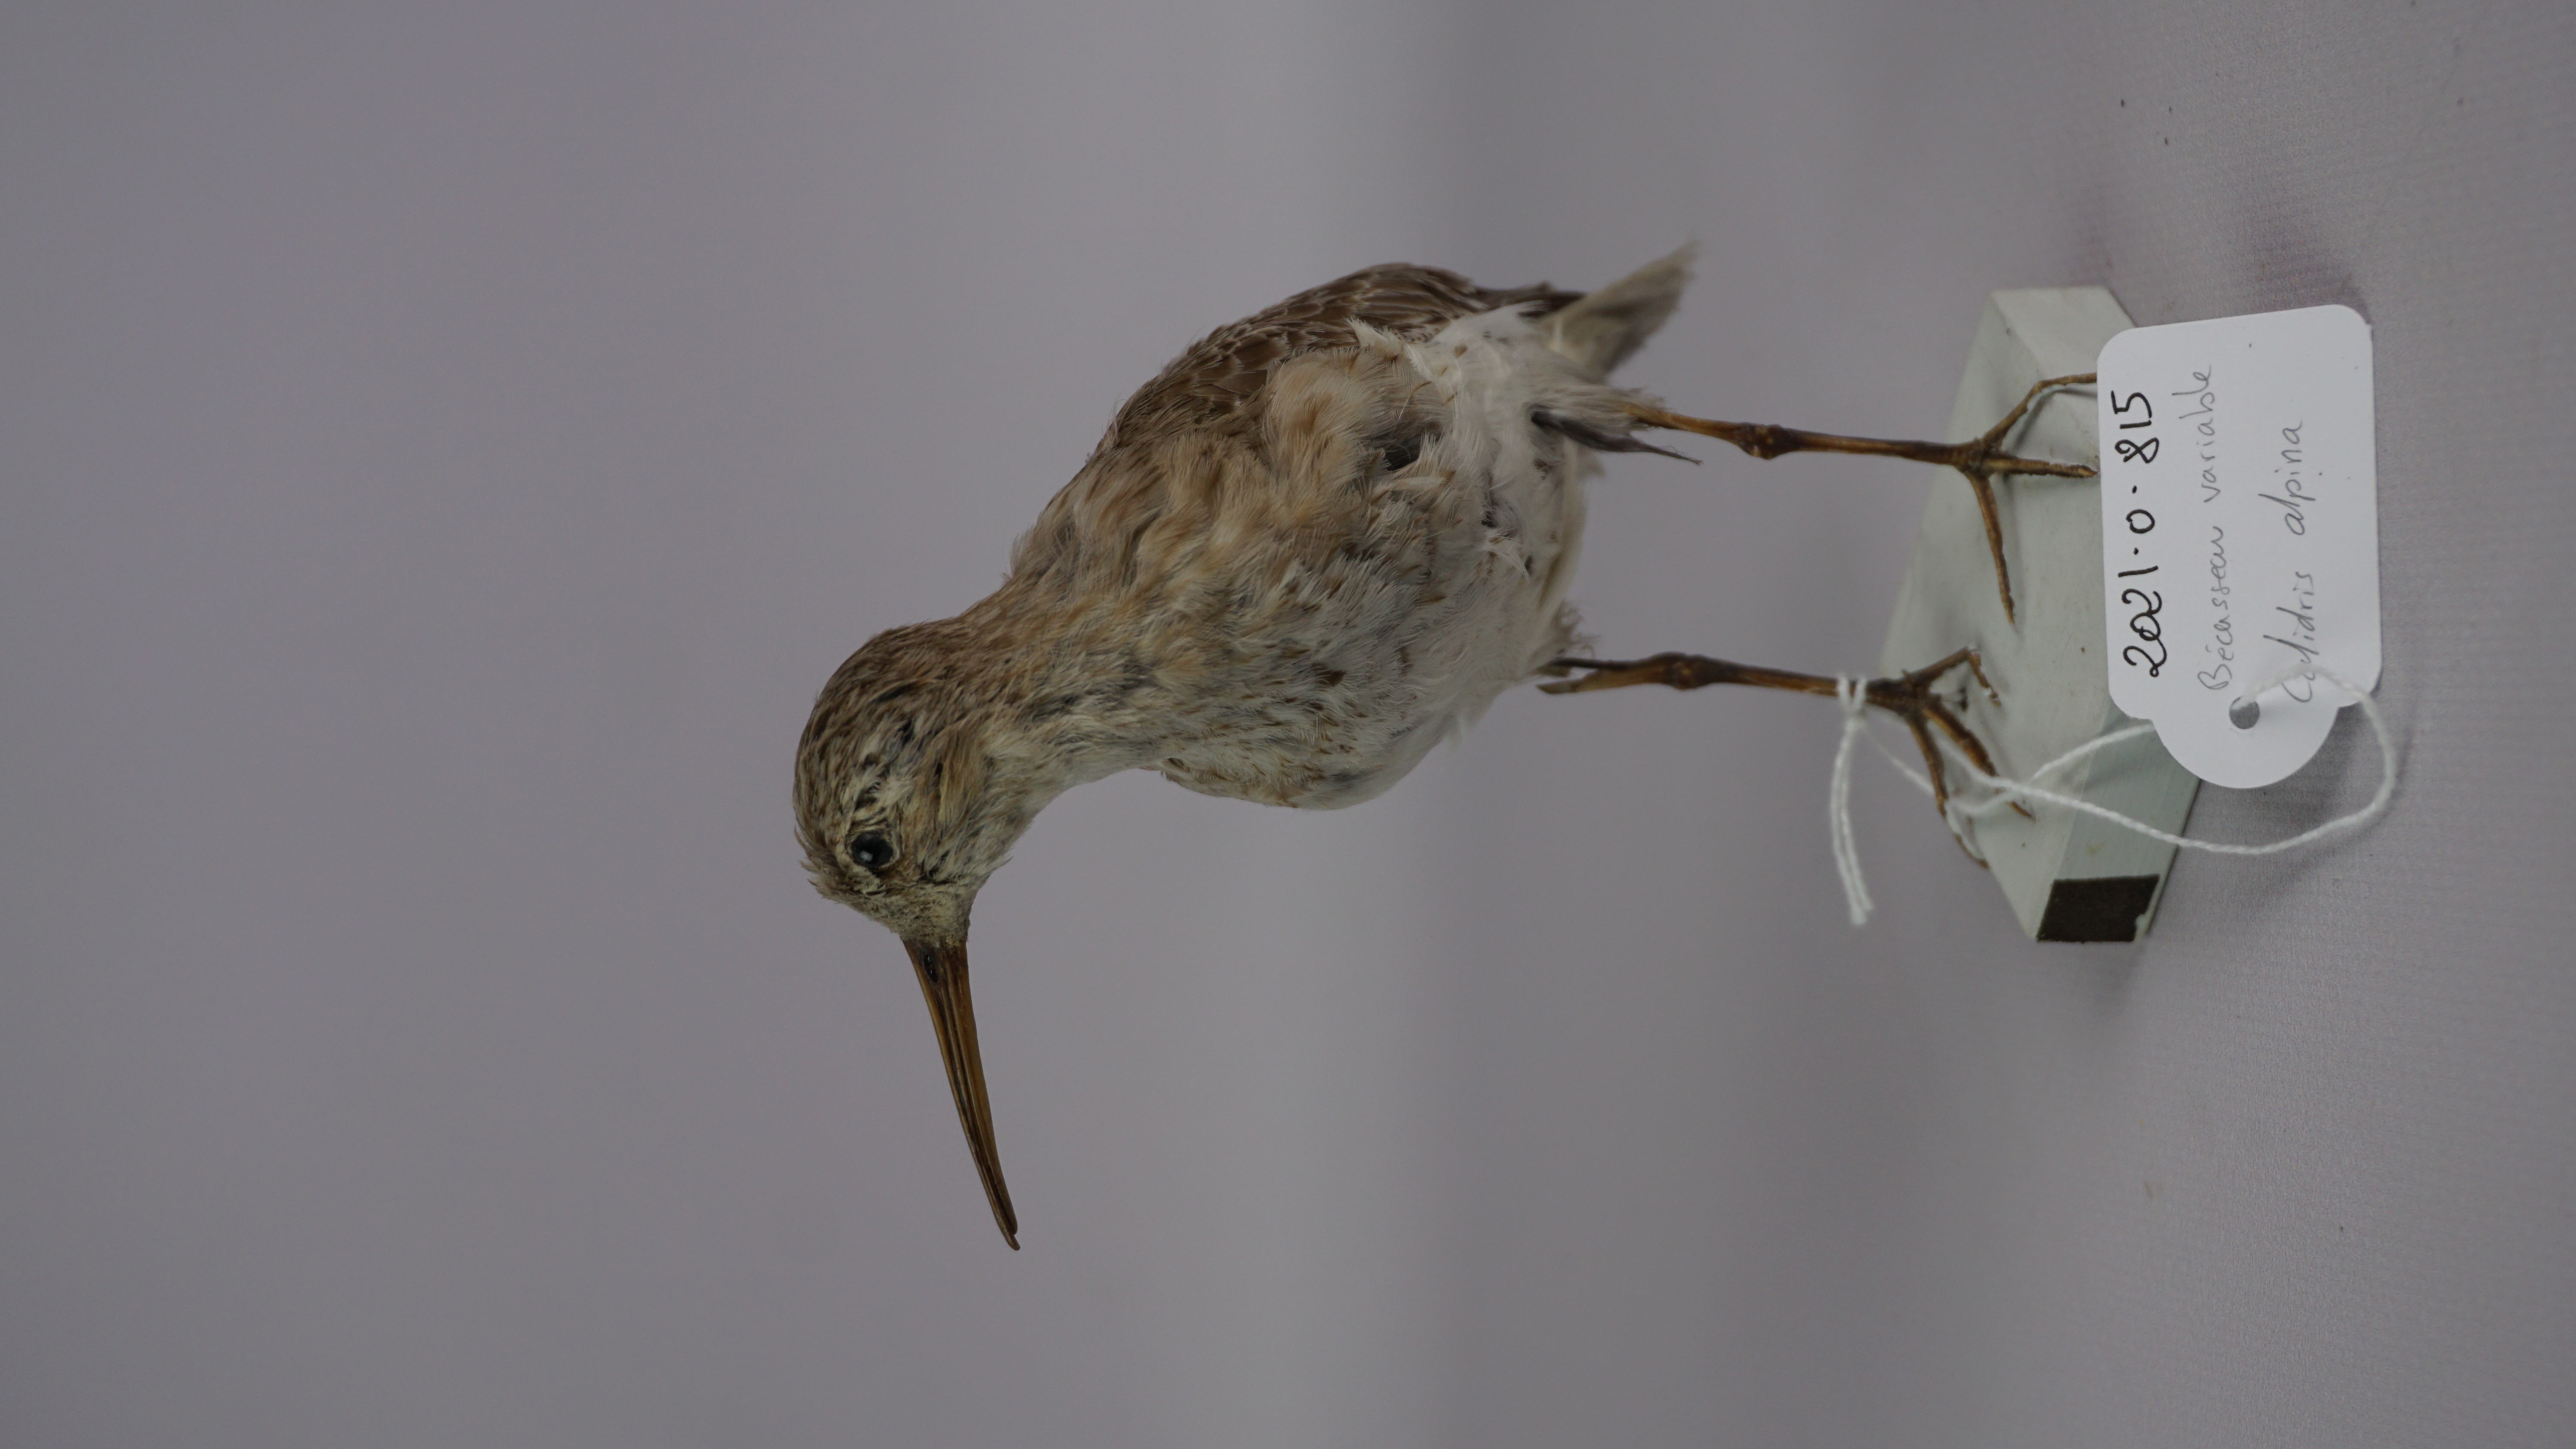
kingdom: Animalia
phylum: Chordata
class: Aves
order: Charadriiformes
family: Scolopacidae
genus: Calidris
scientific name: Calidris alpina
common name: Dunlin
